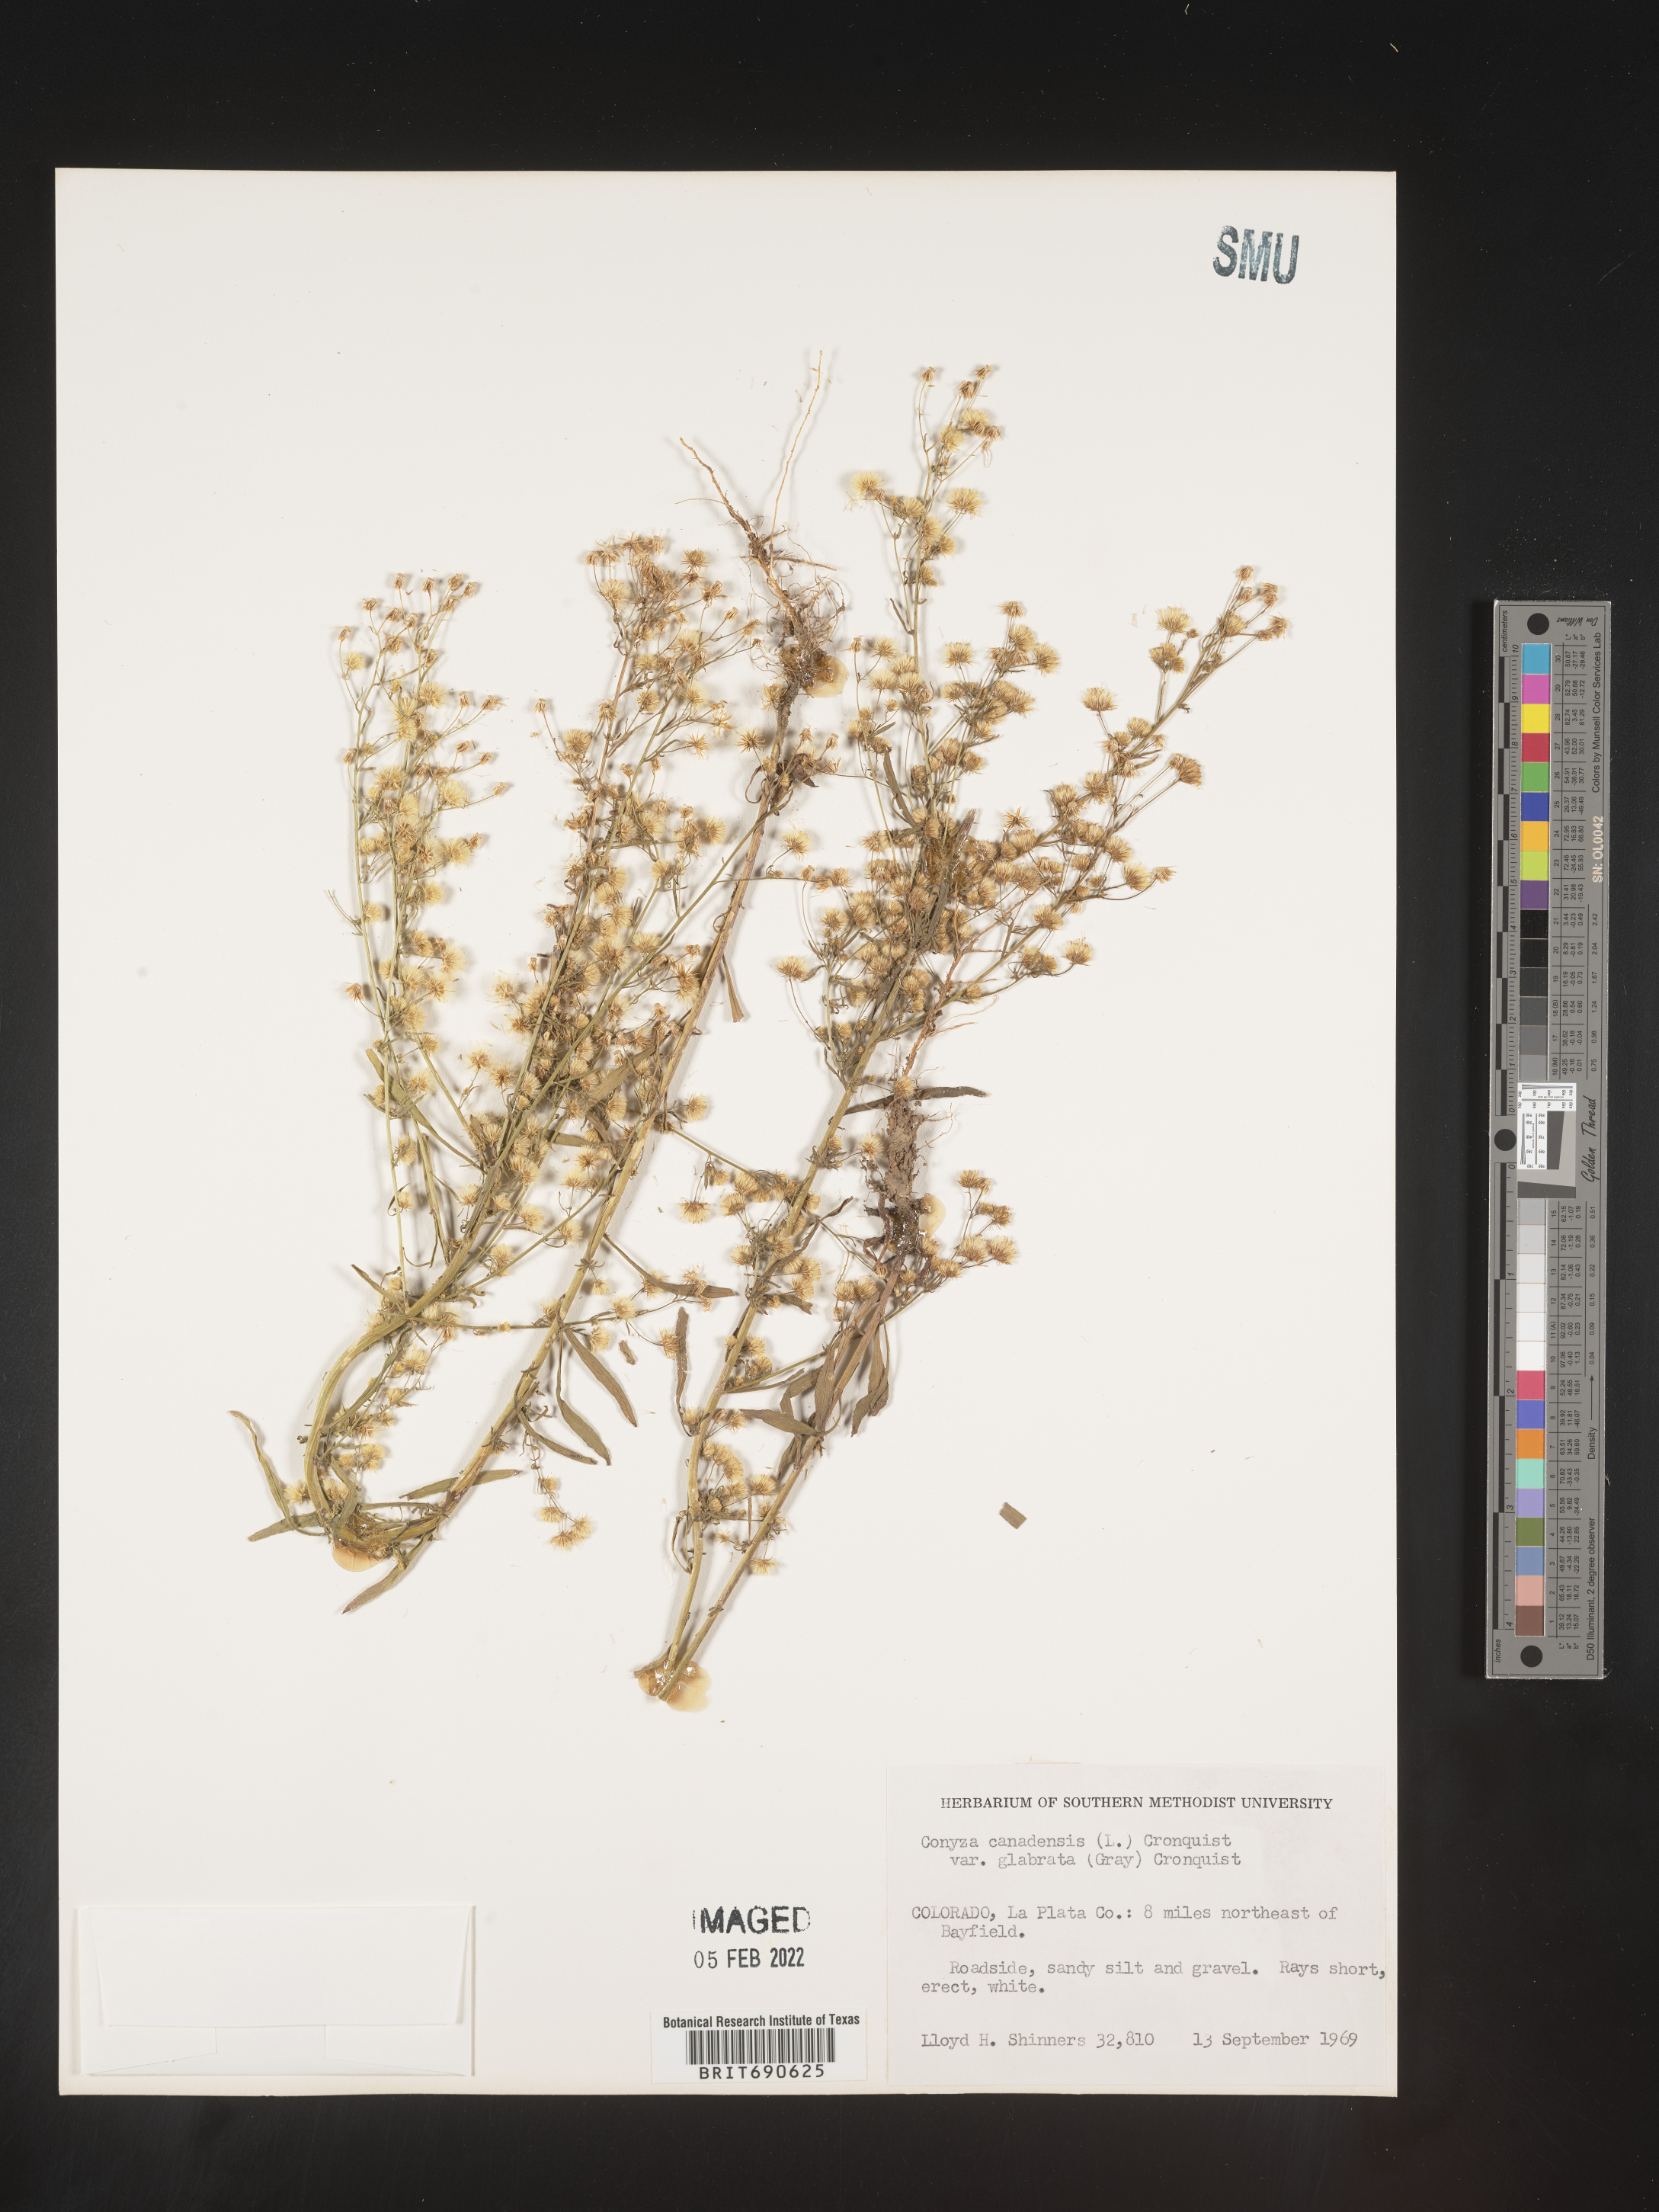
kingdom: Plantae
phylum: Tracheophyta
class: Magnoliopsida
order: Asterales
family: Asteraceae
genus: Erigeron
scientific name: Erigeron canadensis
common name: Canadian fleabane
